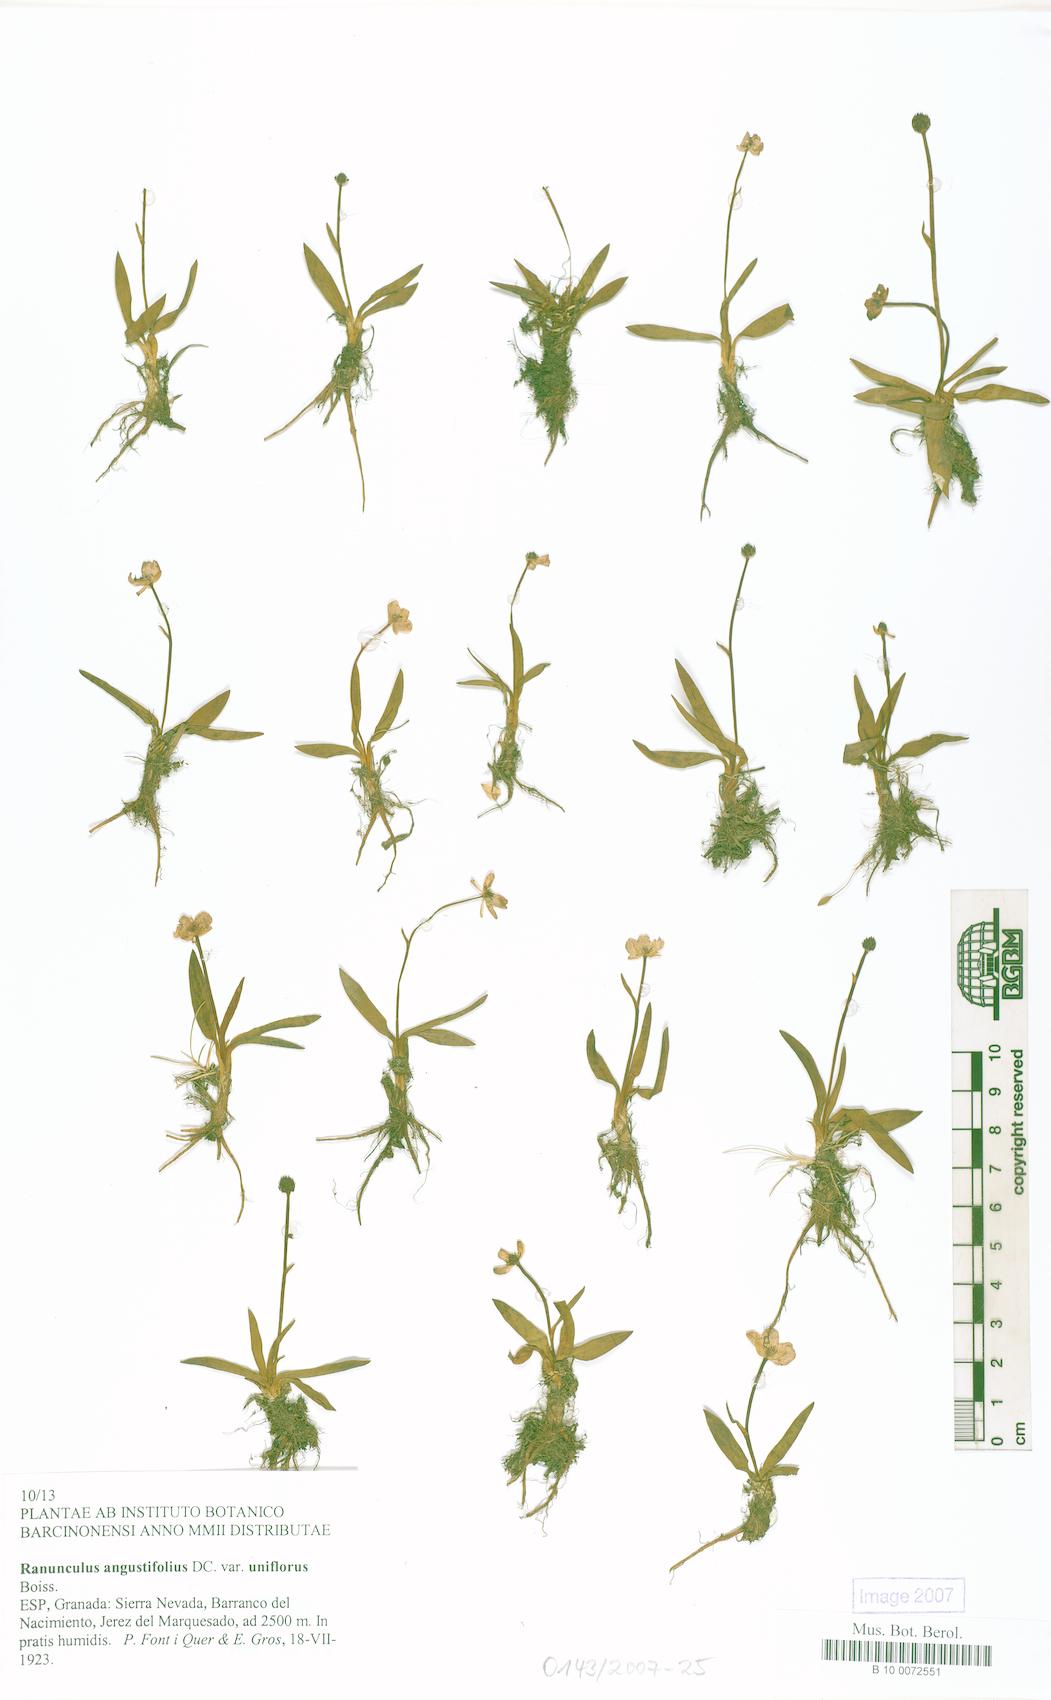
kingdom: Plantae
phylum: Tracheophyta
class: Magnoliopsida
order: Ranunculales
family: Ranunculaceae
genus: Ranunculus
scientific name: Ranunculus angustifolius
